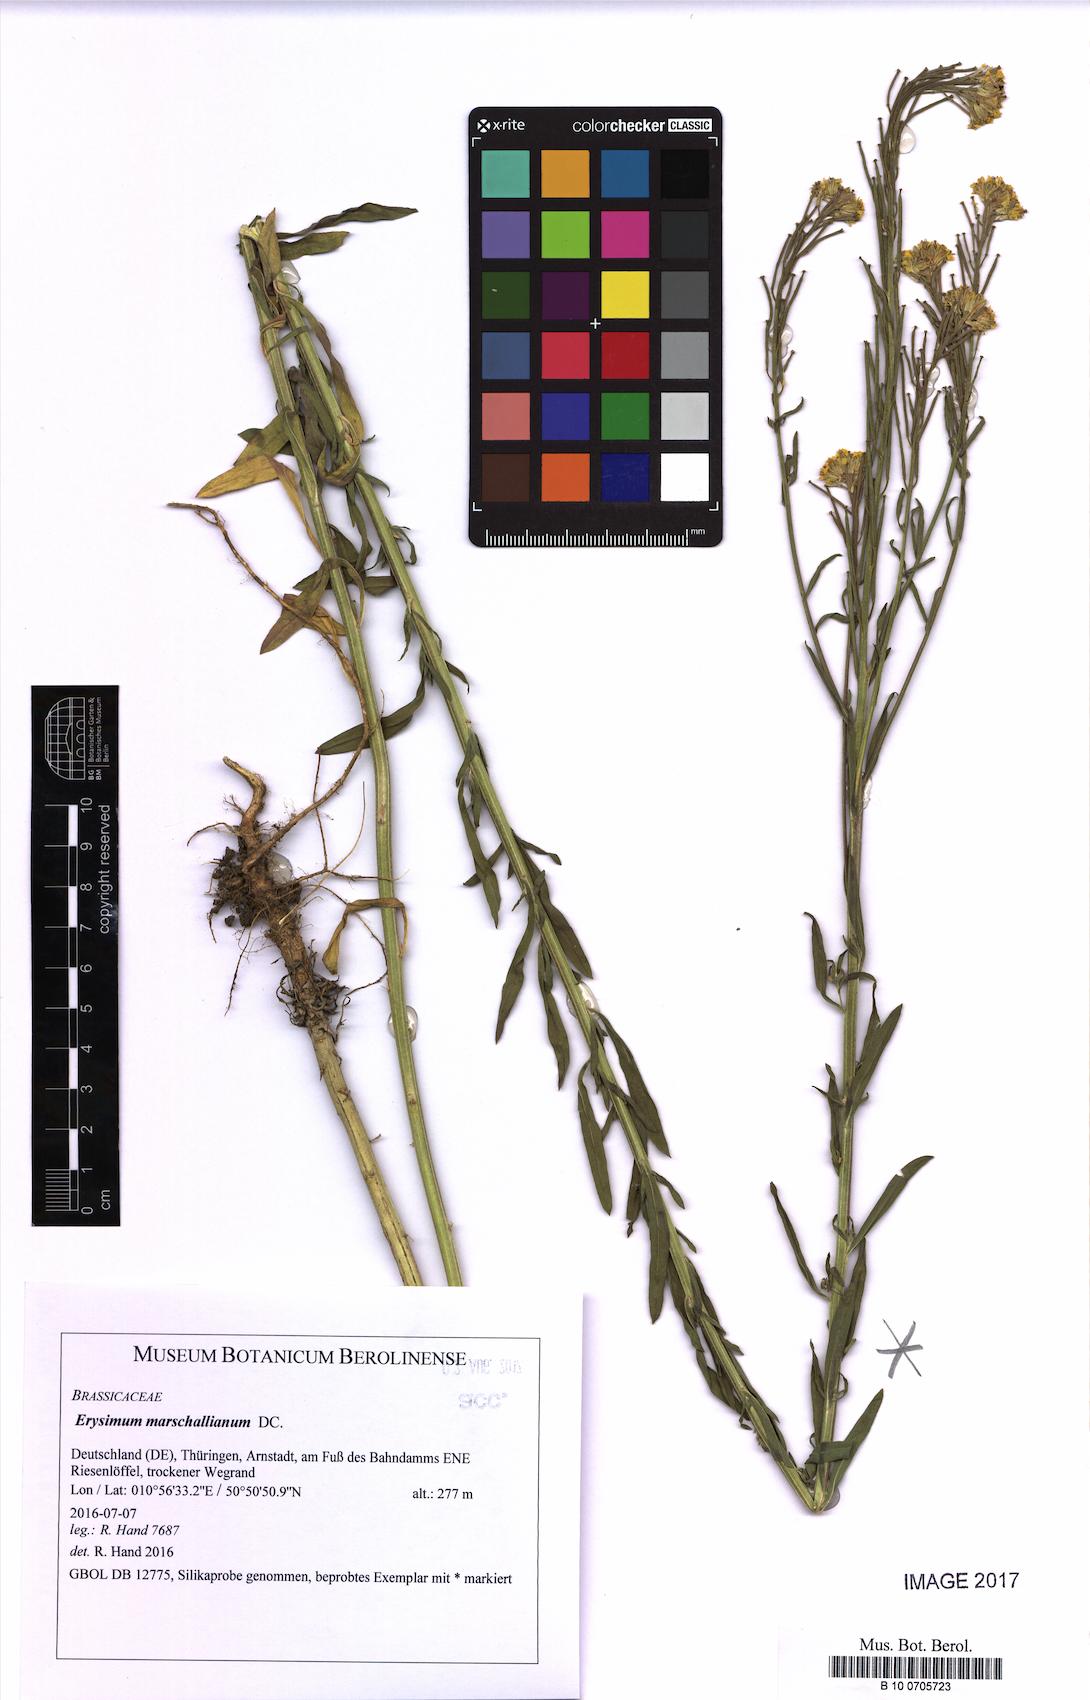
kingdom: Plantae
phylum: Tracheophyta
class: Magnoliopsida
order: Brassicales
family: Brassicaceae
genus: Erysimum
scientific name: Erysimum marschallianum
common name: Hard wallflower
